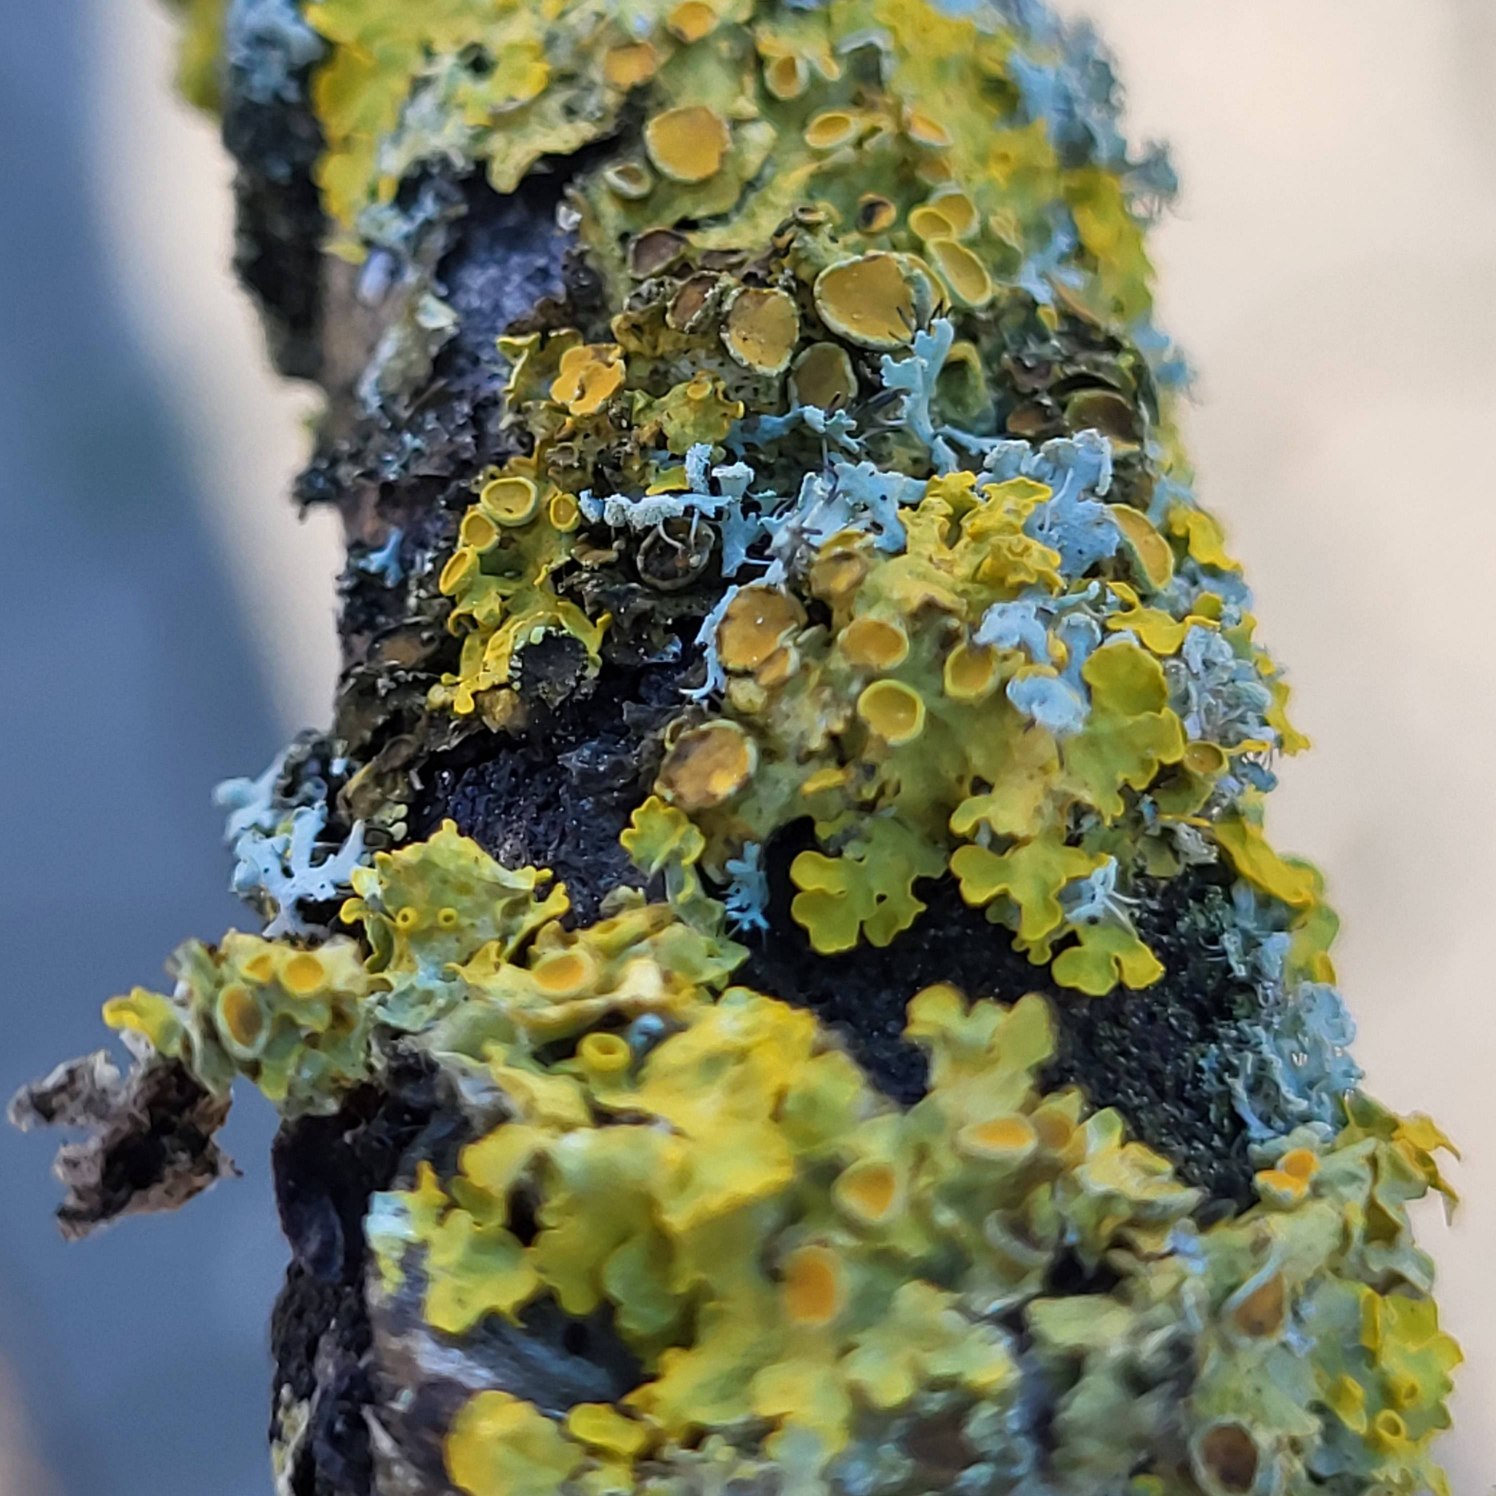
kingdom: Fungi
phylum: Ascomycota
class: Lecanoromycetes
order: Teloschistales
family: Teloschistaceae
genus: Xanthoria
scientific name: Xanthoria parietina
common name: Almindelig væggelav
